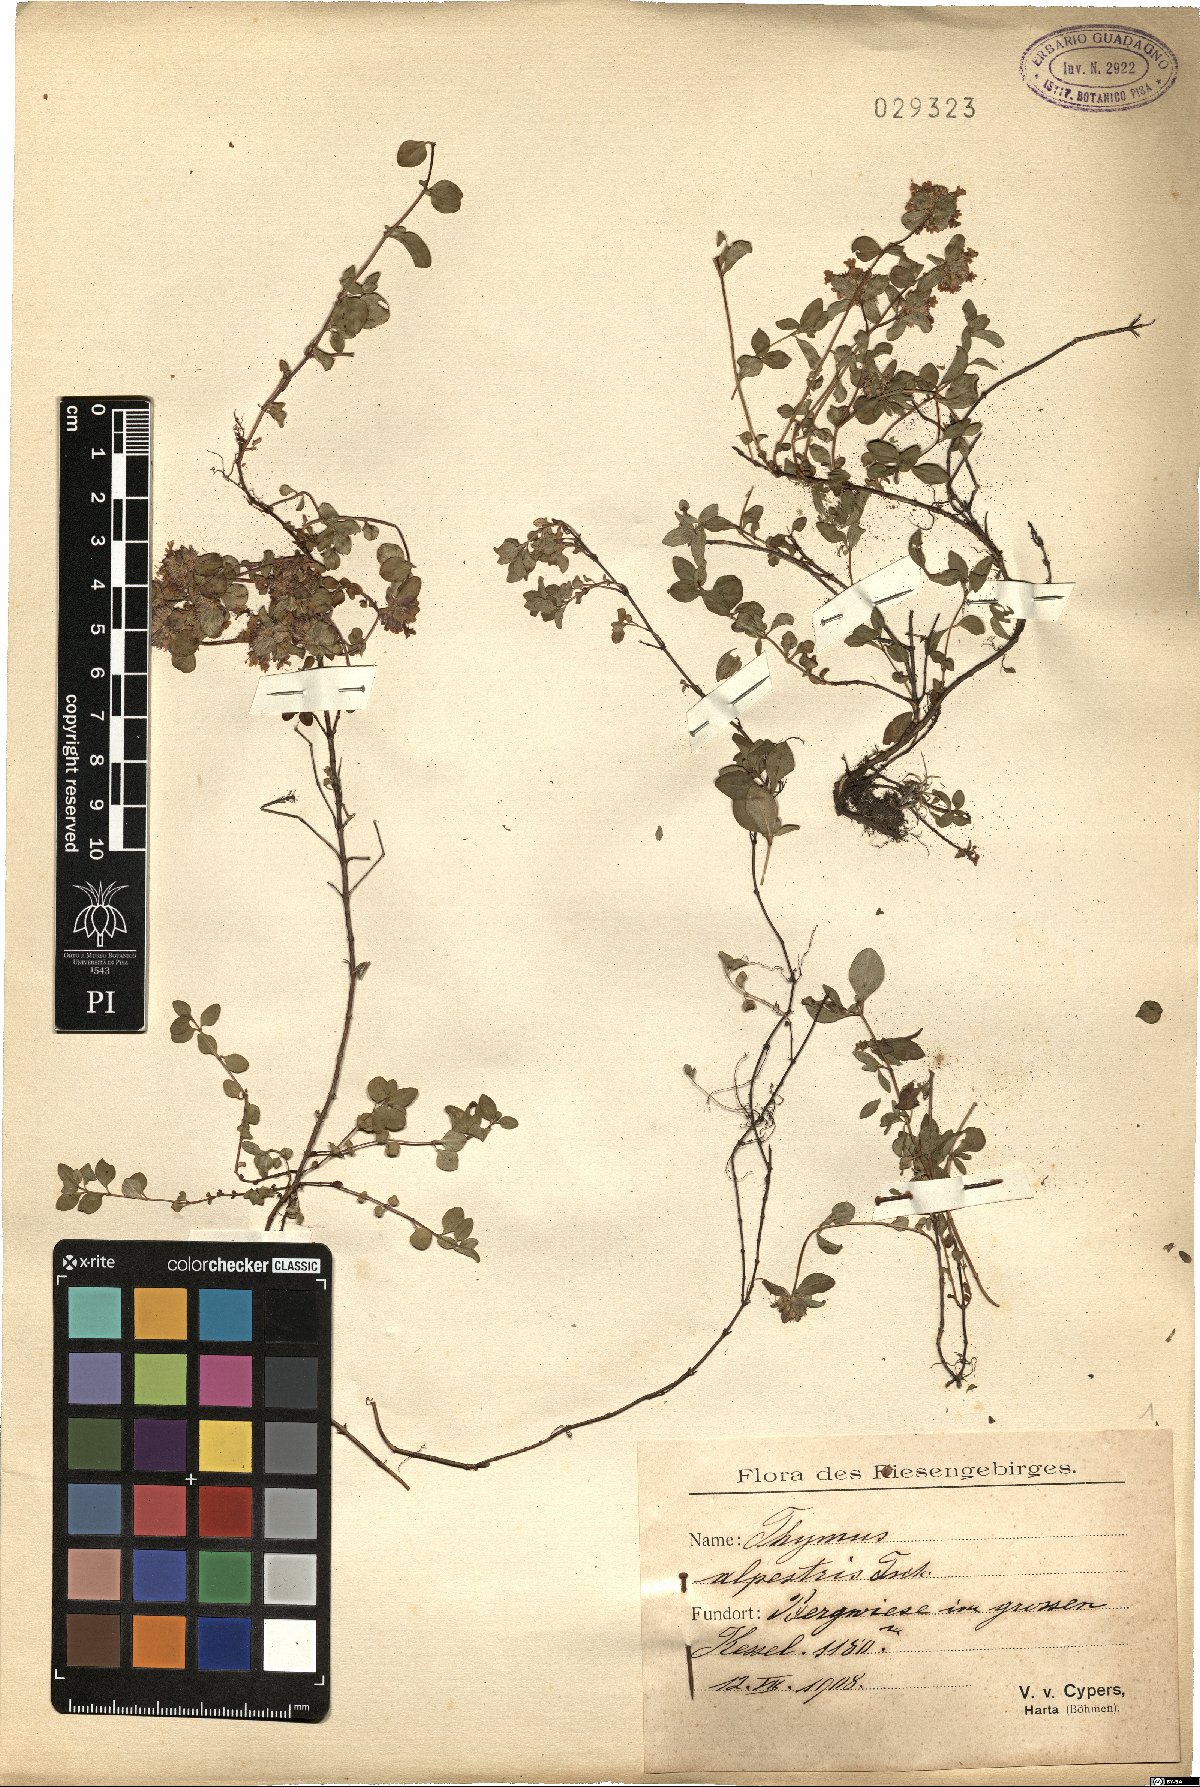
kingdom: Plantae
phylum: Tracheophyta
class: Magnoliopsida
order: Lamiales
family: Lamiaceae
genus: Thymus
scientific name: Thymus alpestris
